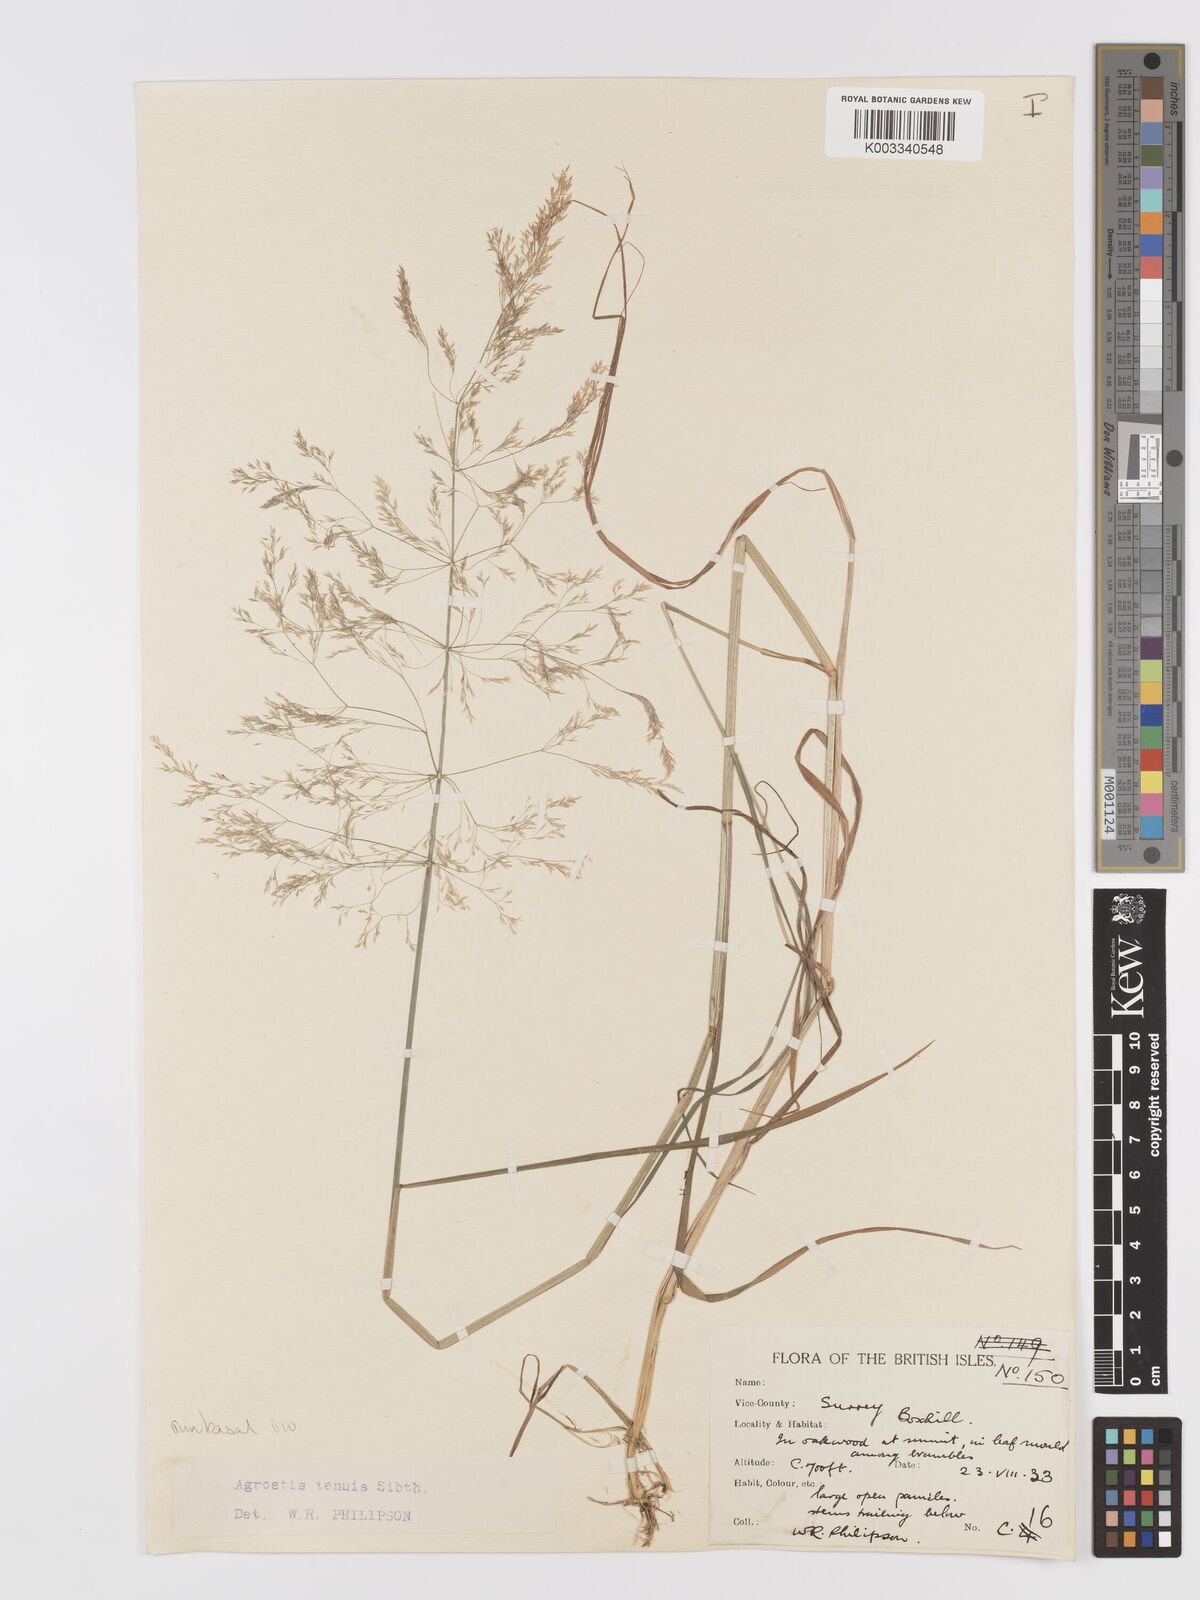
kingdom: Plantae
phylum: Tracheophyta
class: Liliopsida
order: Poales
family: Poaceae
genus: Agrostis
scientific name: Agrostis capillaris
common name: Colonial bentgrass
